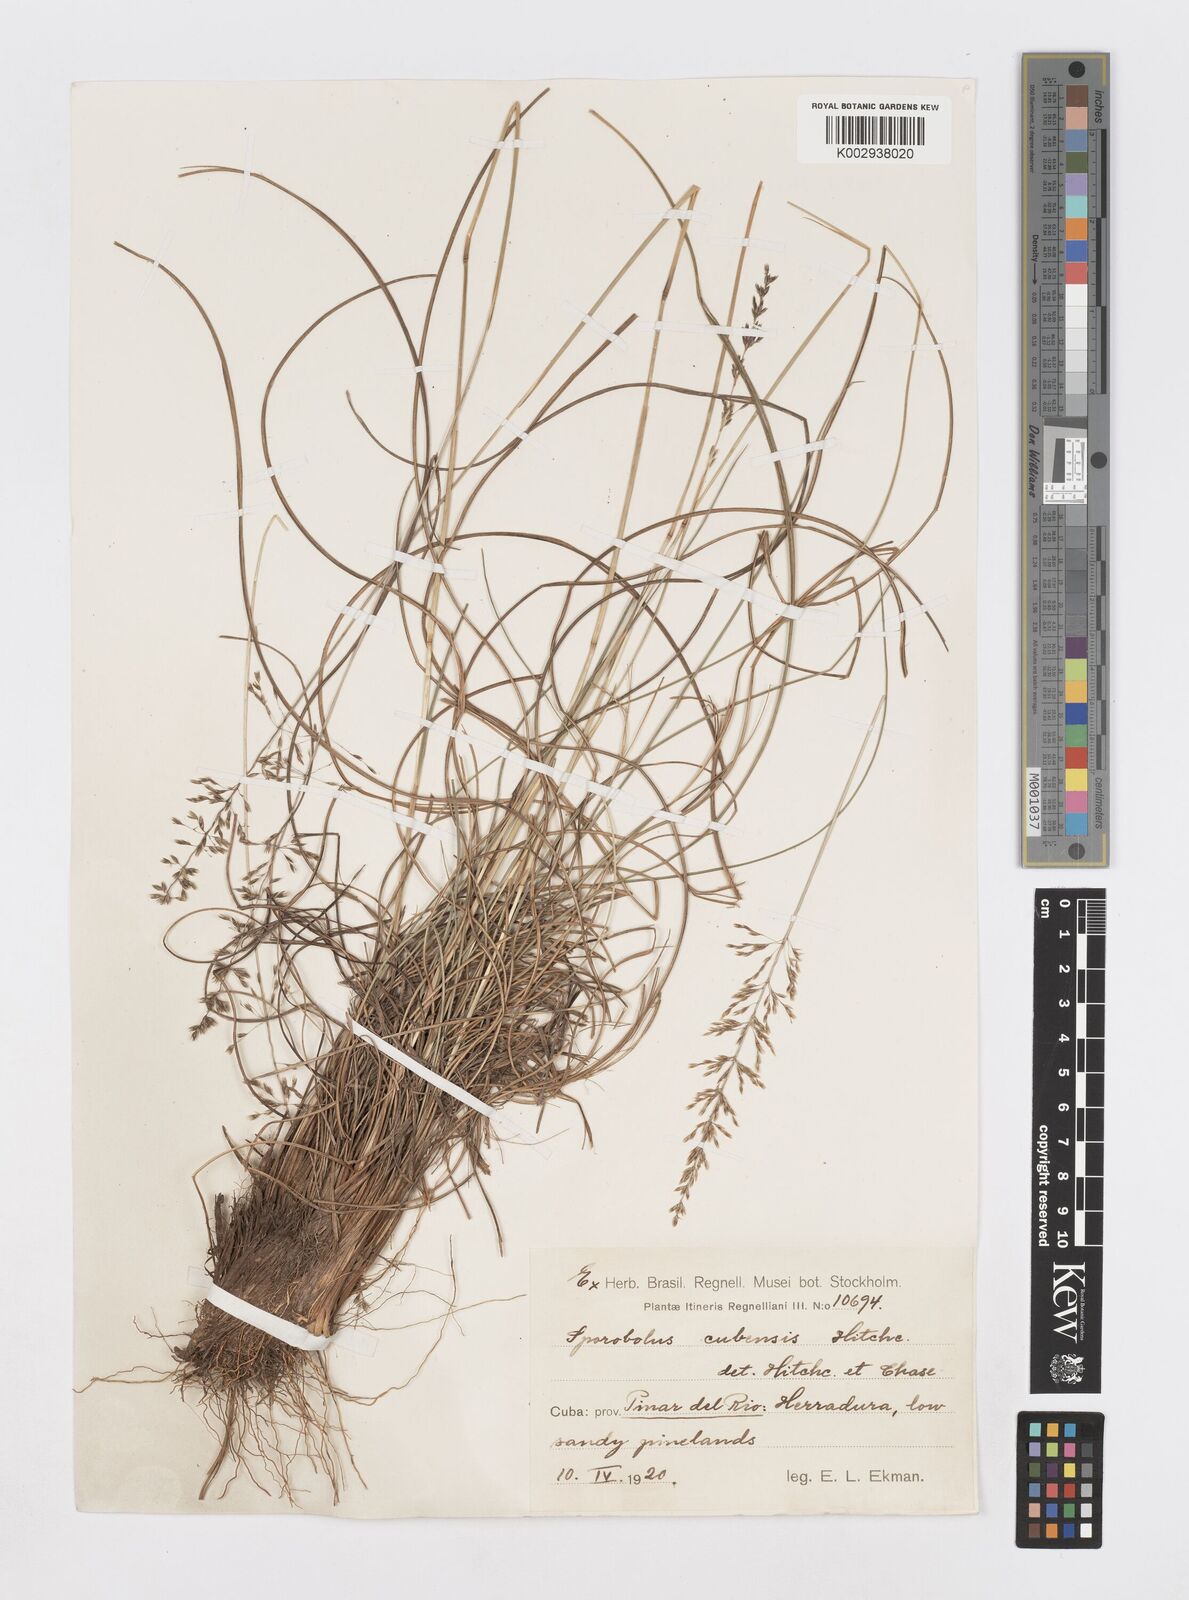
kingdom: Plantae
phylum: Tracheophyta
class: Liliopsida
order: Poales
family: Poaceae
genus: Sporobolus
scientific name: Sporobolus cubensis
